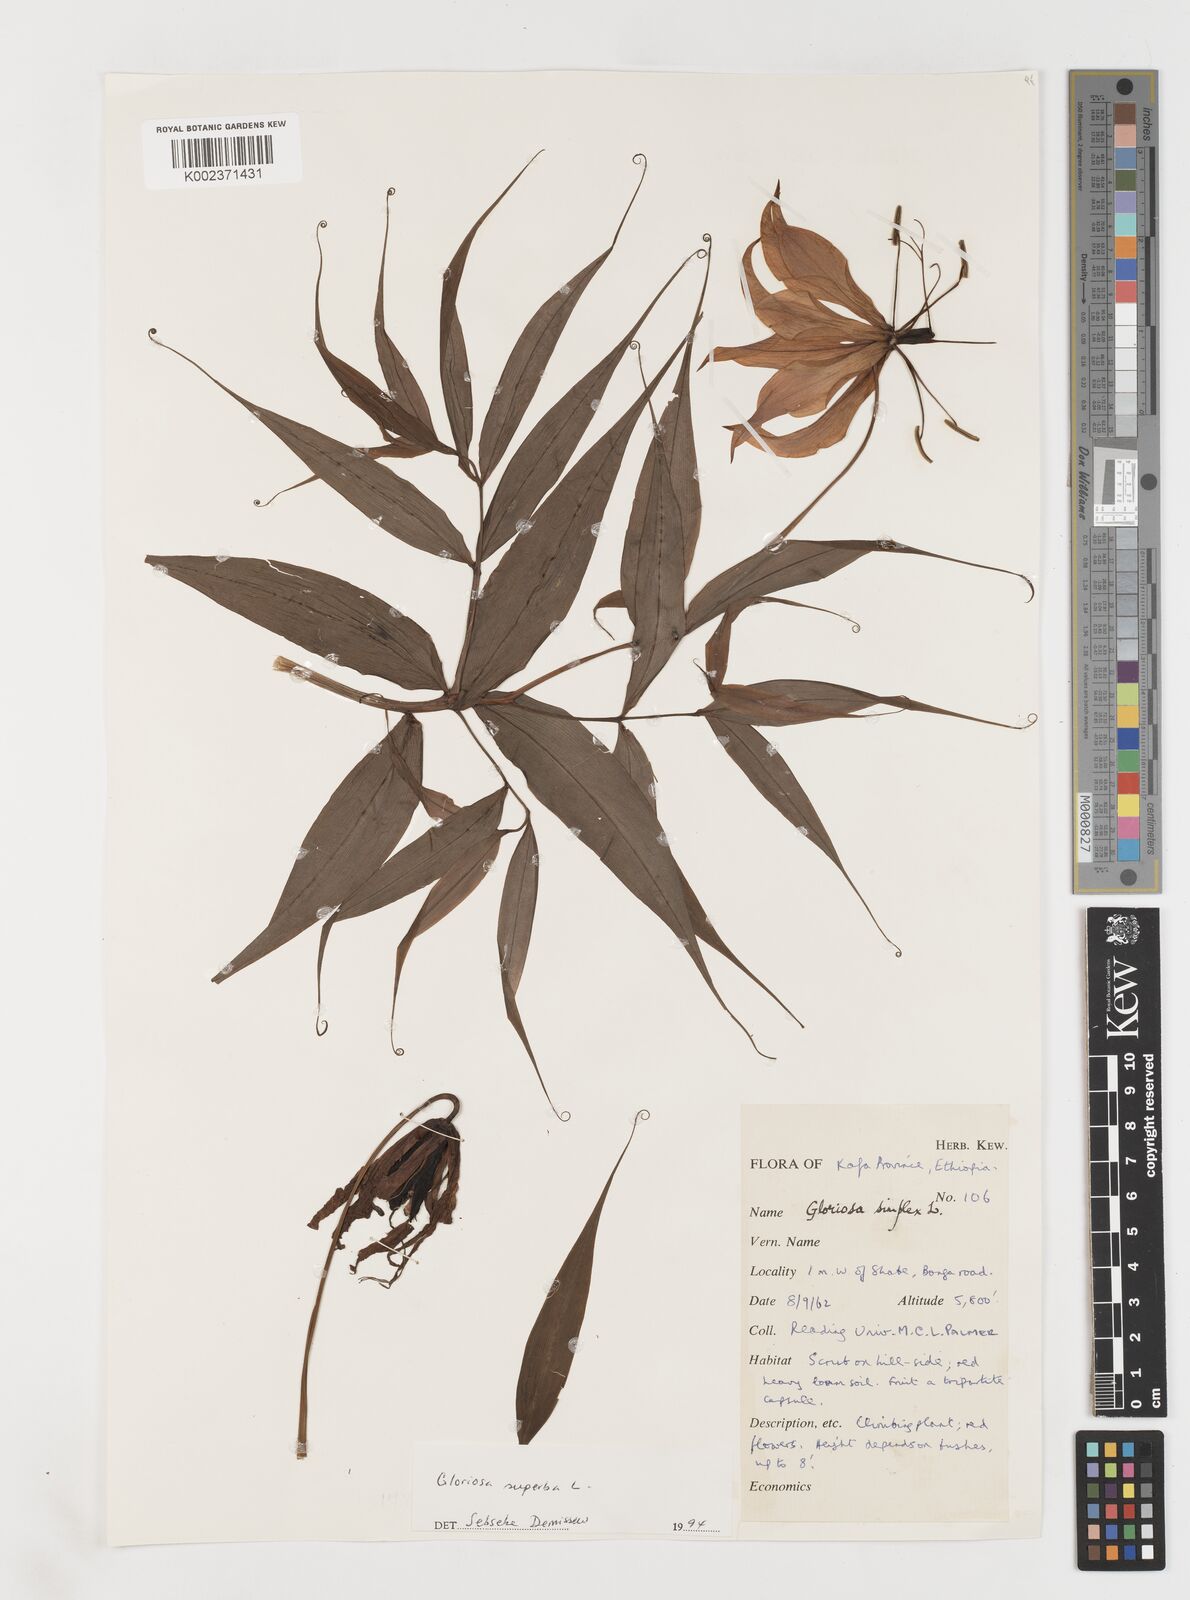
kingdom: Plantae
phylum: Tracheophyta
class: Liliopsida
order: Liliales
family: Colchicaceae
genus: Gloriosa
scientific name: Gloriosa simplex
